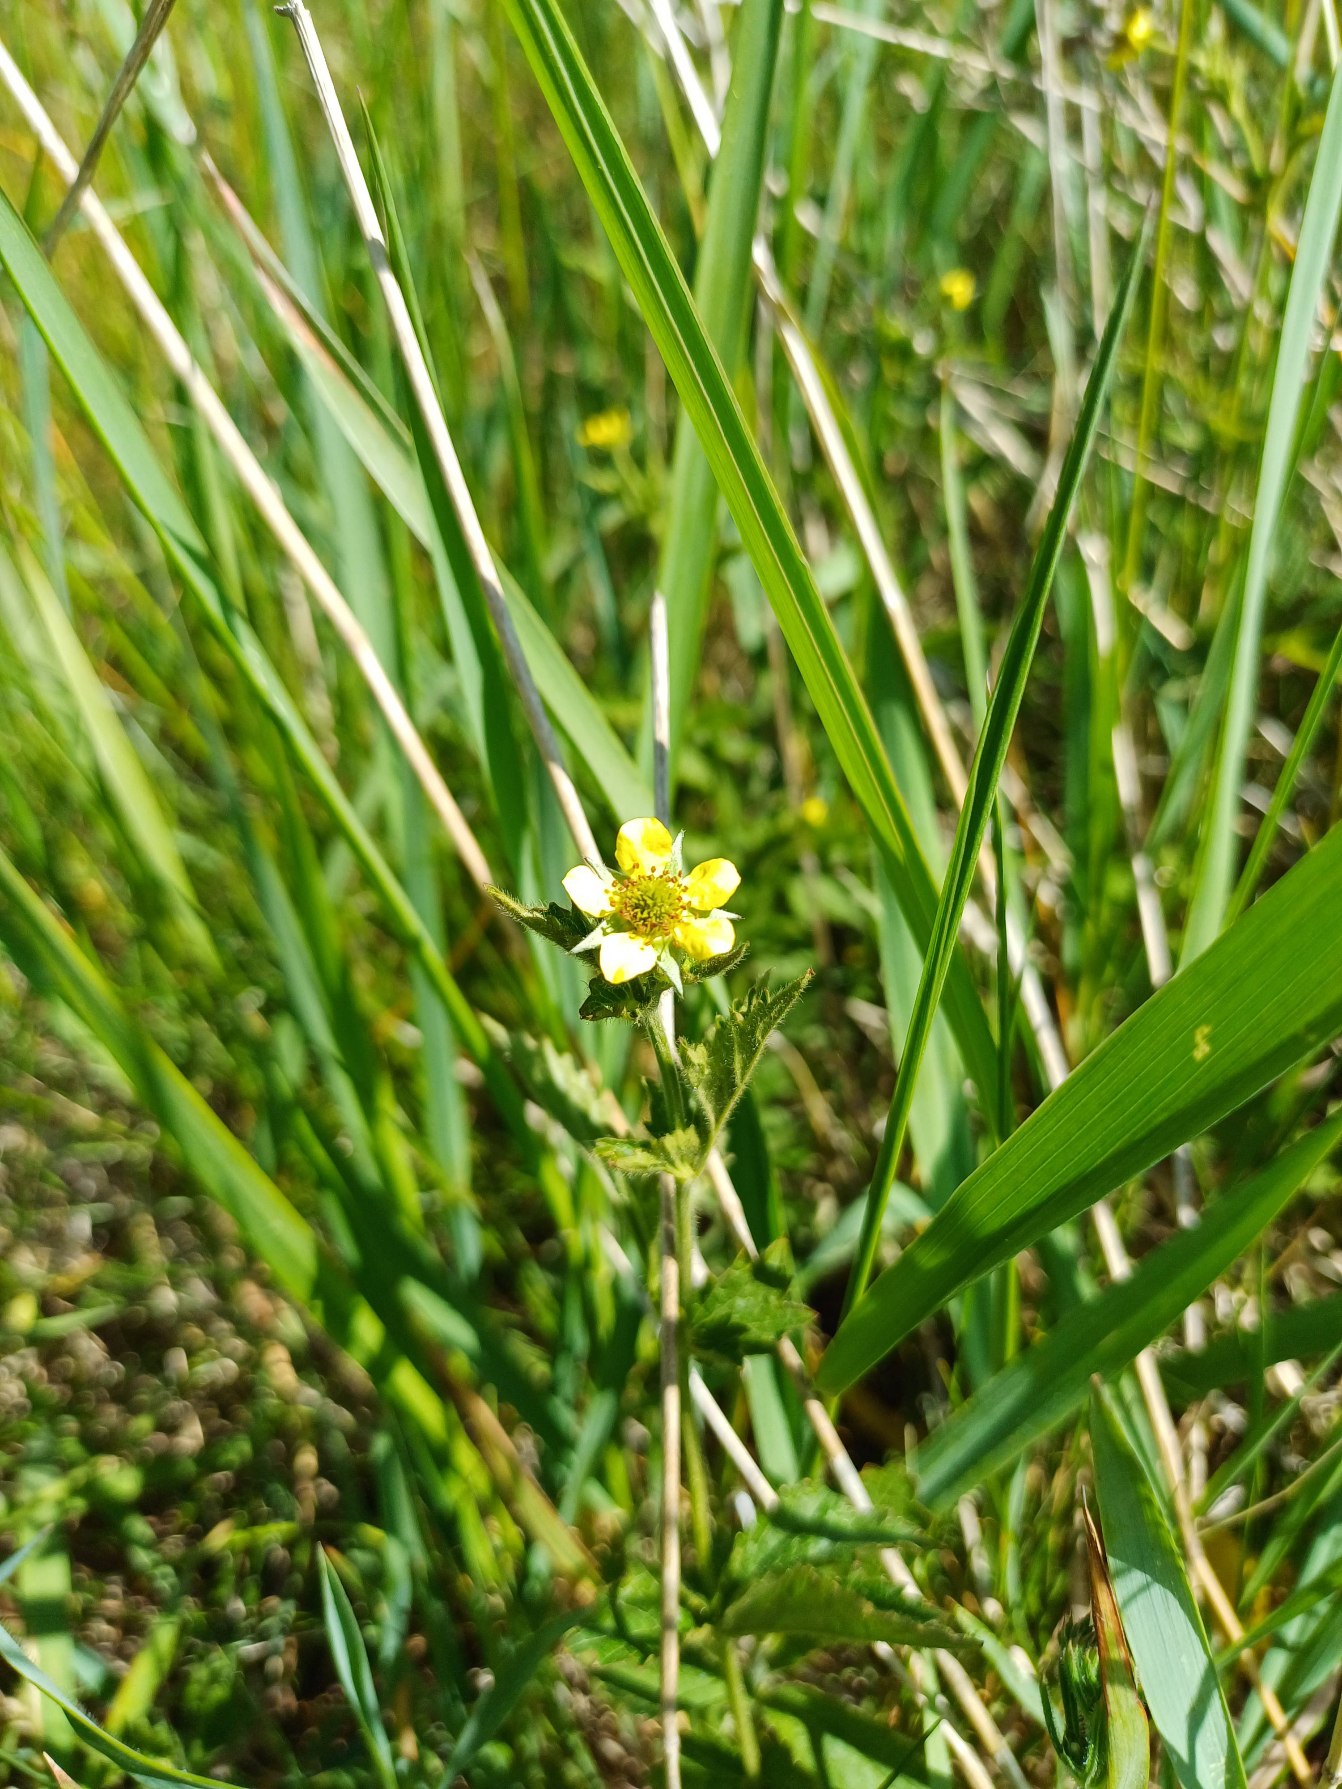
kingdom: Plantae
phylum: Tracheophyta
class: Magnoliopsida
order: Rosales
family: Rosaceae
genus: Geum
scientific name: Geum urbanum
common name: Feber-nellikerod
